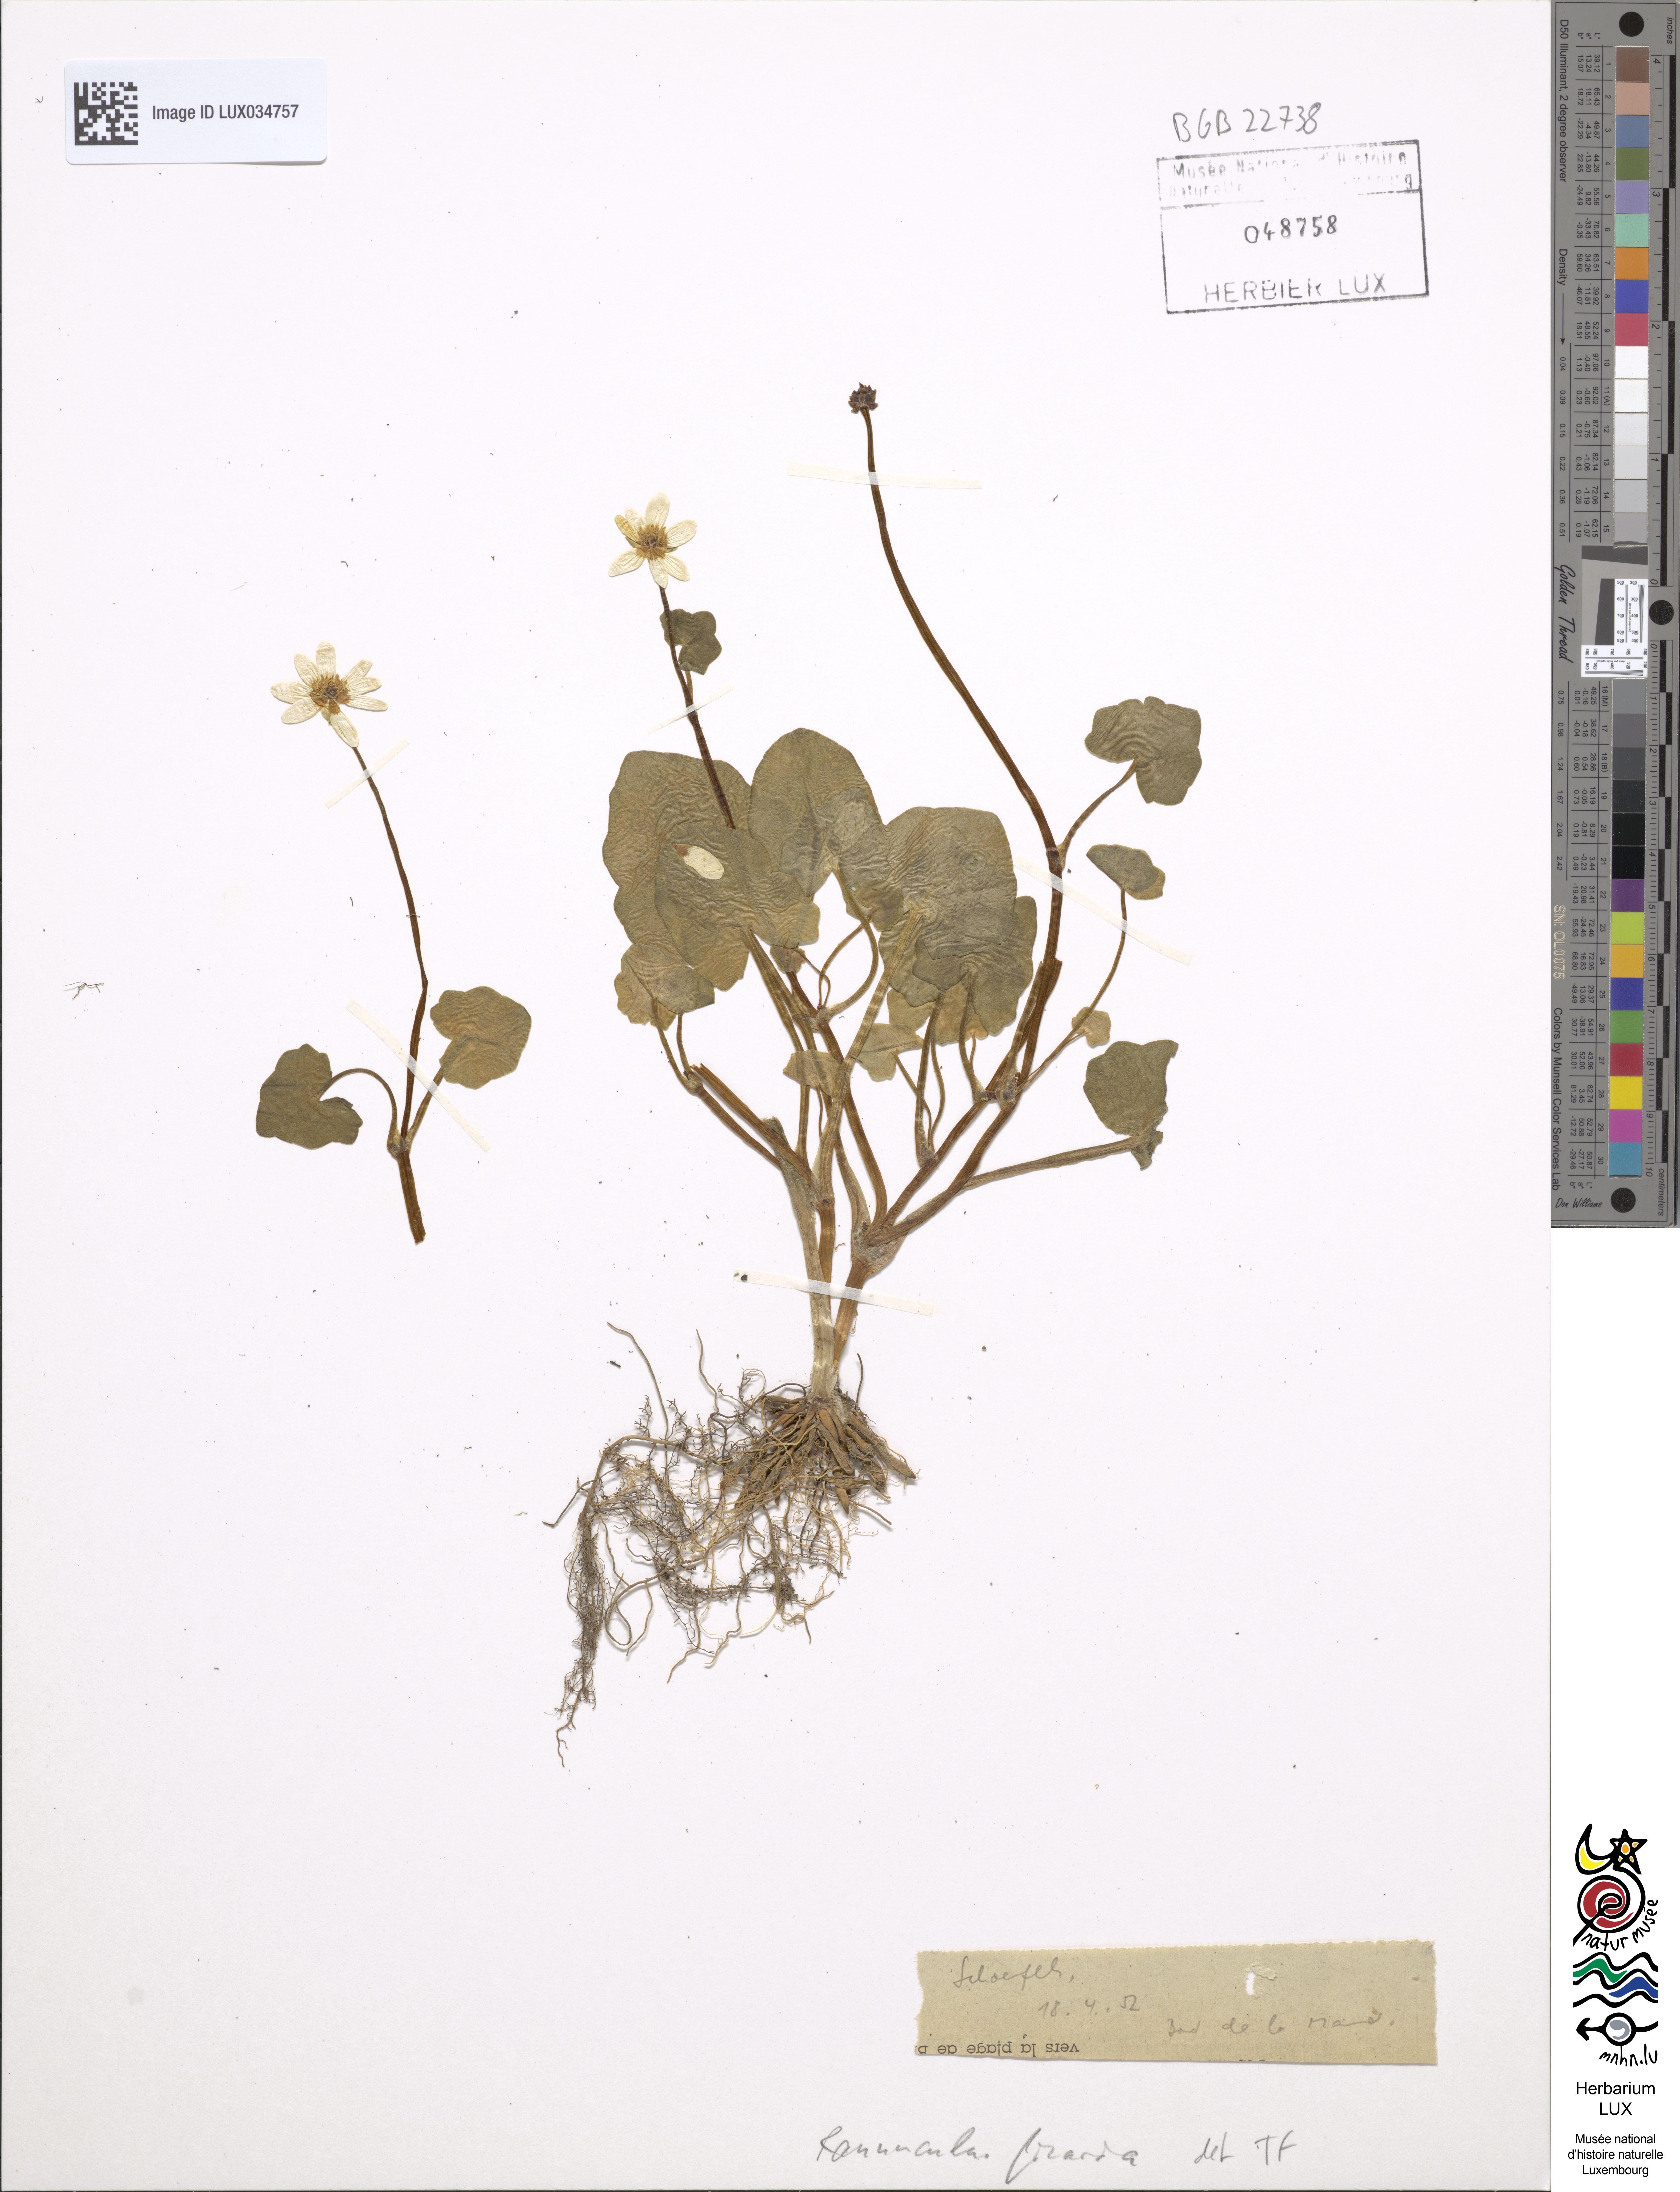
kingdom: Plantae
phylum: Tracheophyta
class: Magnoliopsida
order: Ranunculales
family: Ranunculaceae
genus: Ficaria
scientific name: Ficaria verna
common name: Lesser celandine
